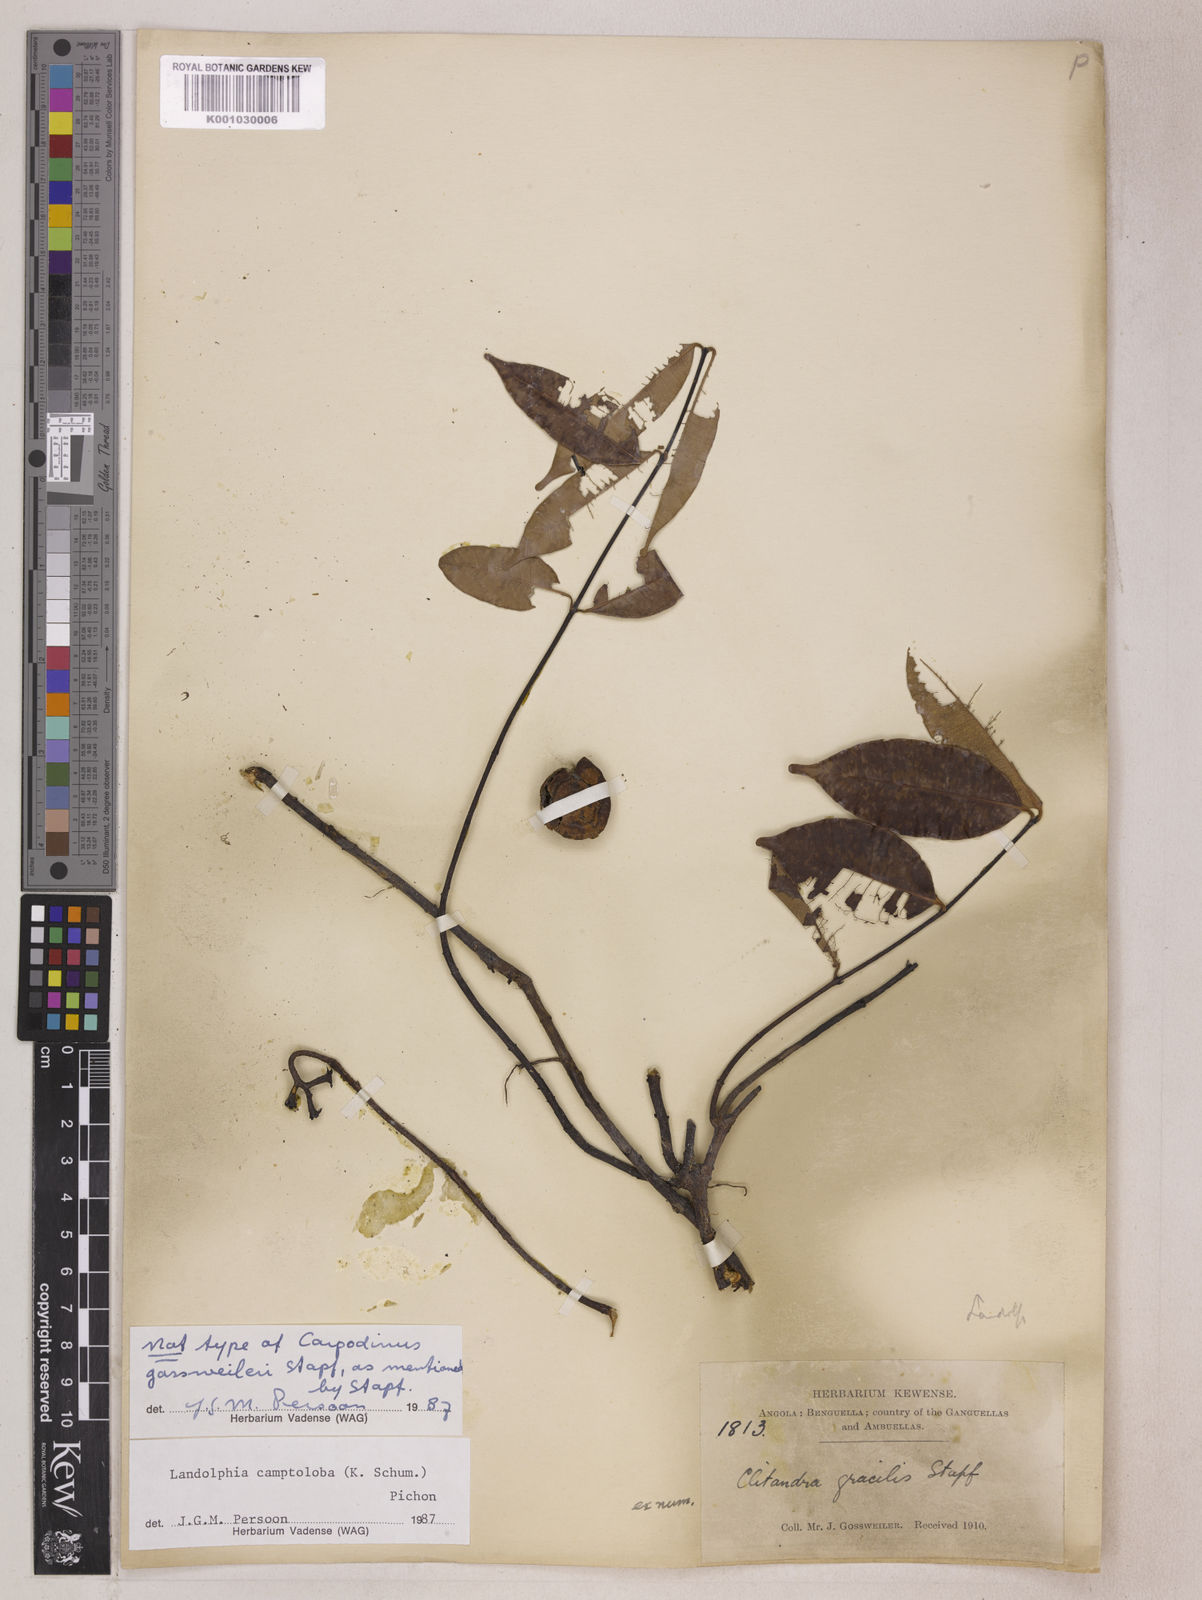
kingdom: Plantae
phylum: Tracheophyta
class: Magnoliopsida
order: Gentianales
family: Apocynaceae
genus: Landolphia
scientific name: Landolphia camptoloba
